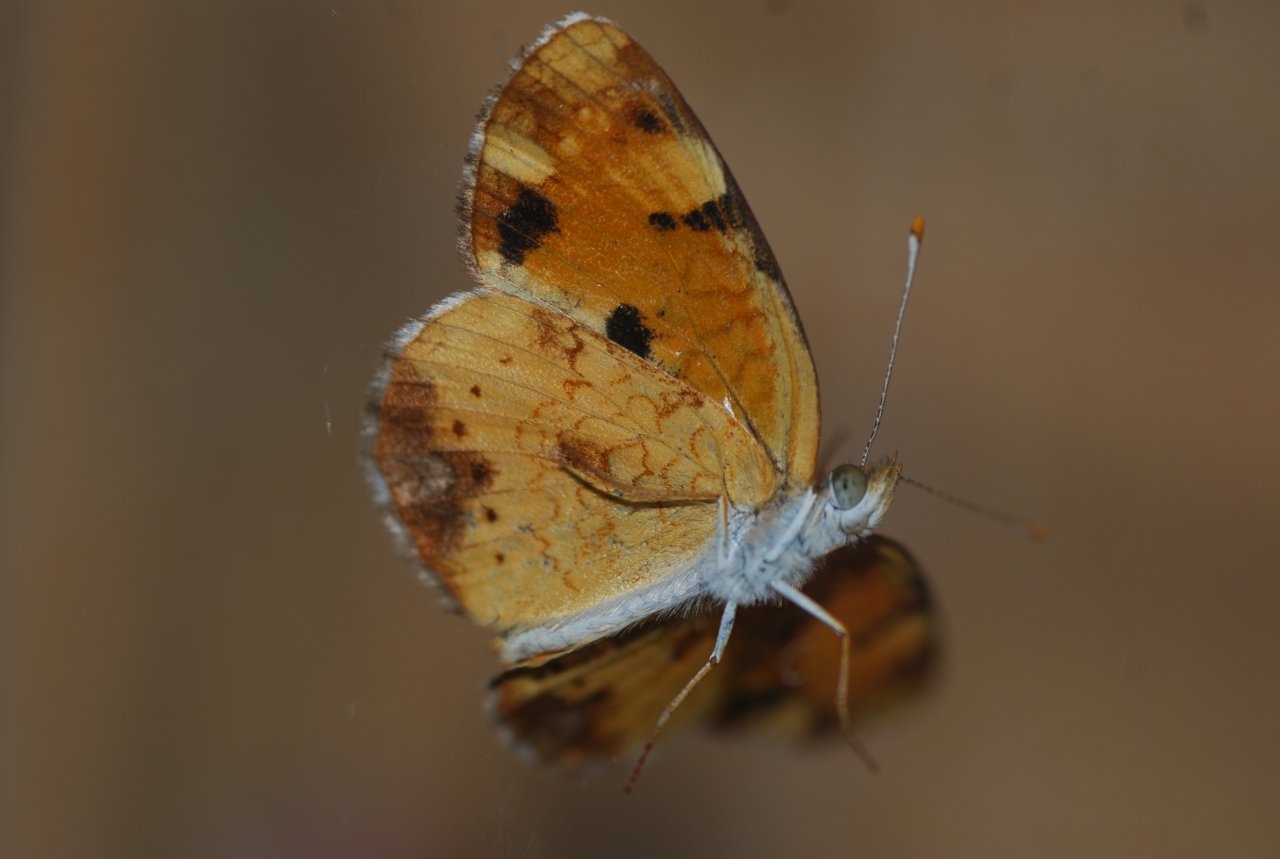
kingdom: Animalia
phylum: Arthropoda
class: Insecta
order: Lepidoptera
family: Nymphalidae
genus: Phyciodes
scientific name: Phyciodes tharos
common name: Pearl Crescent
